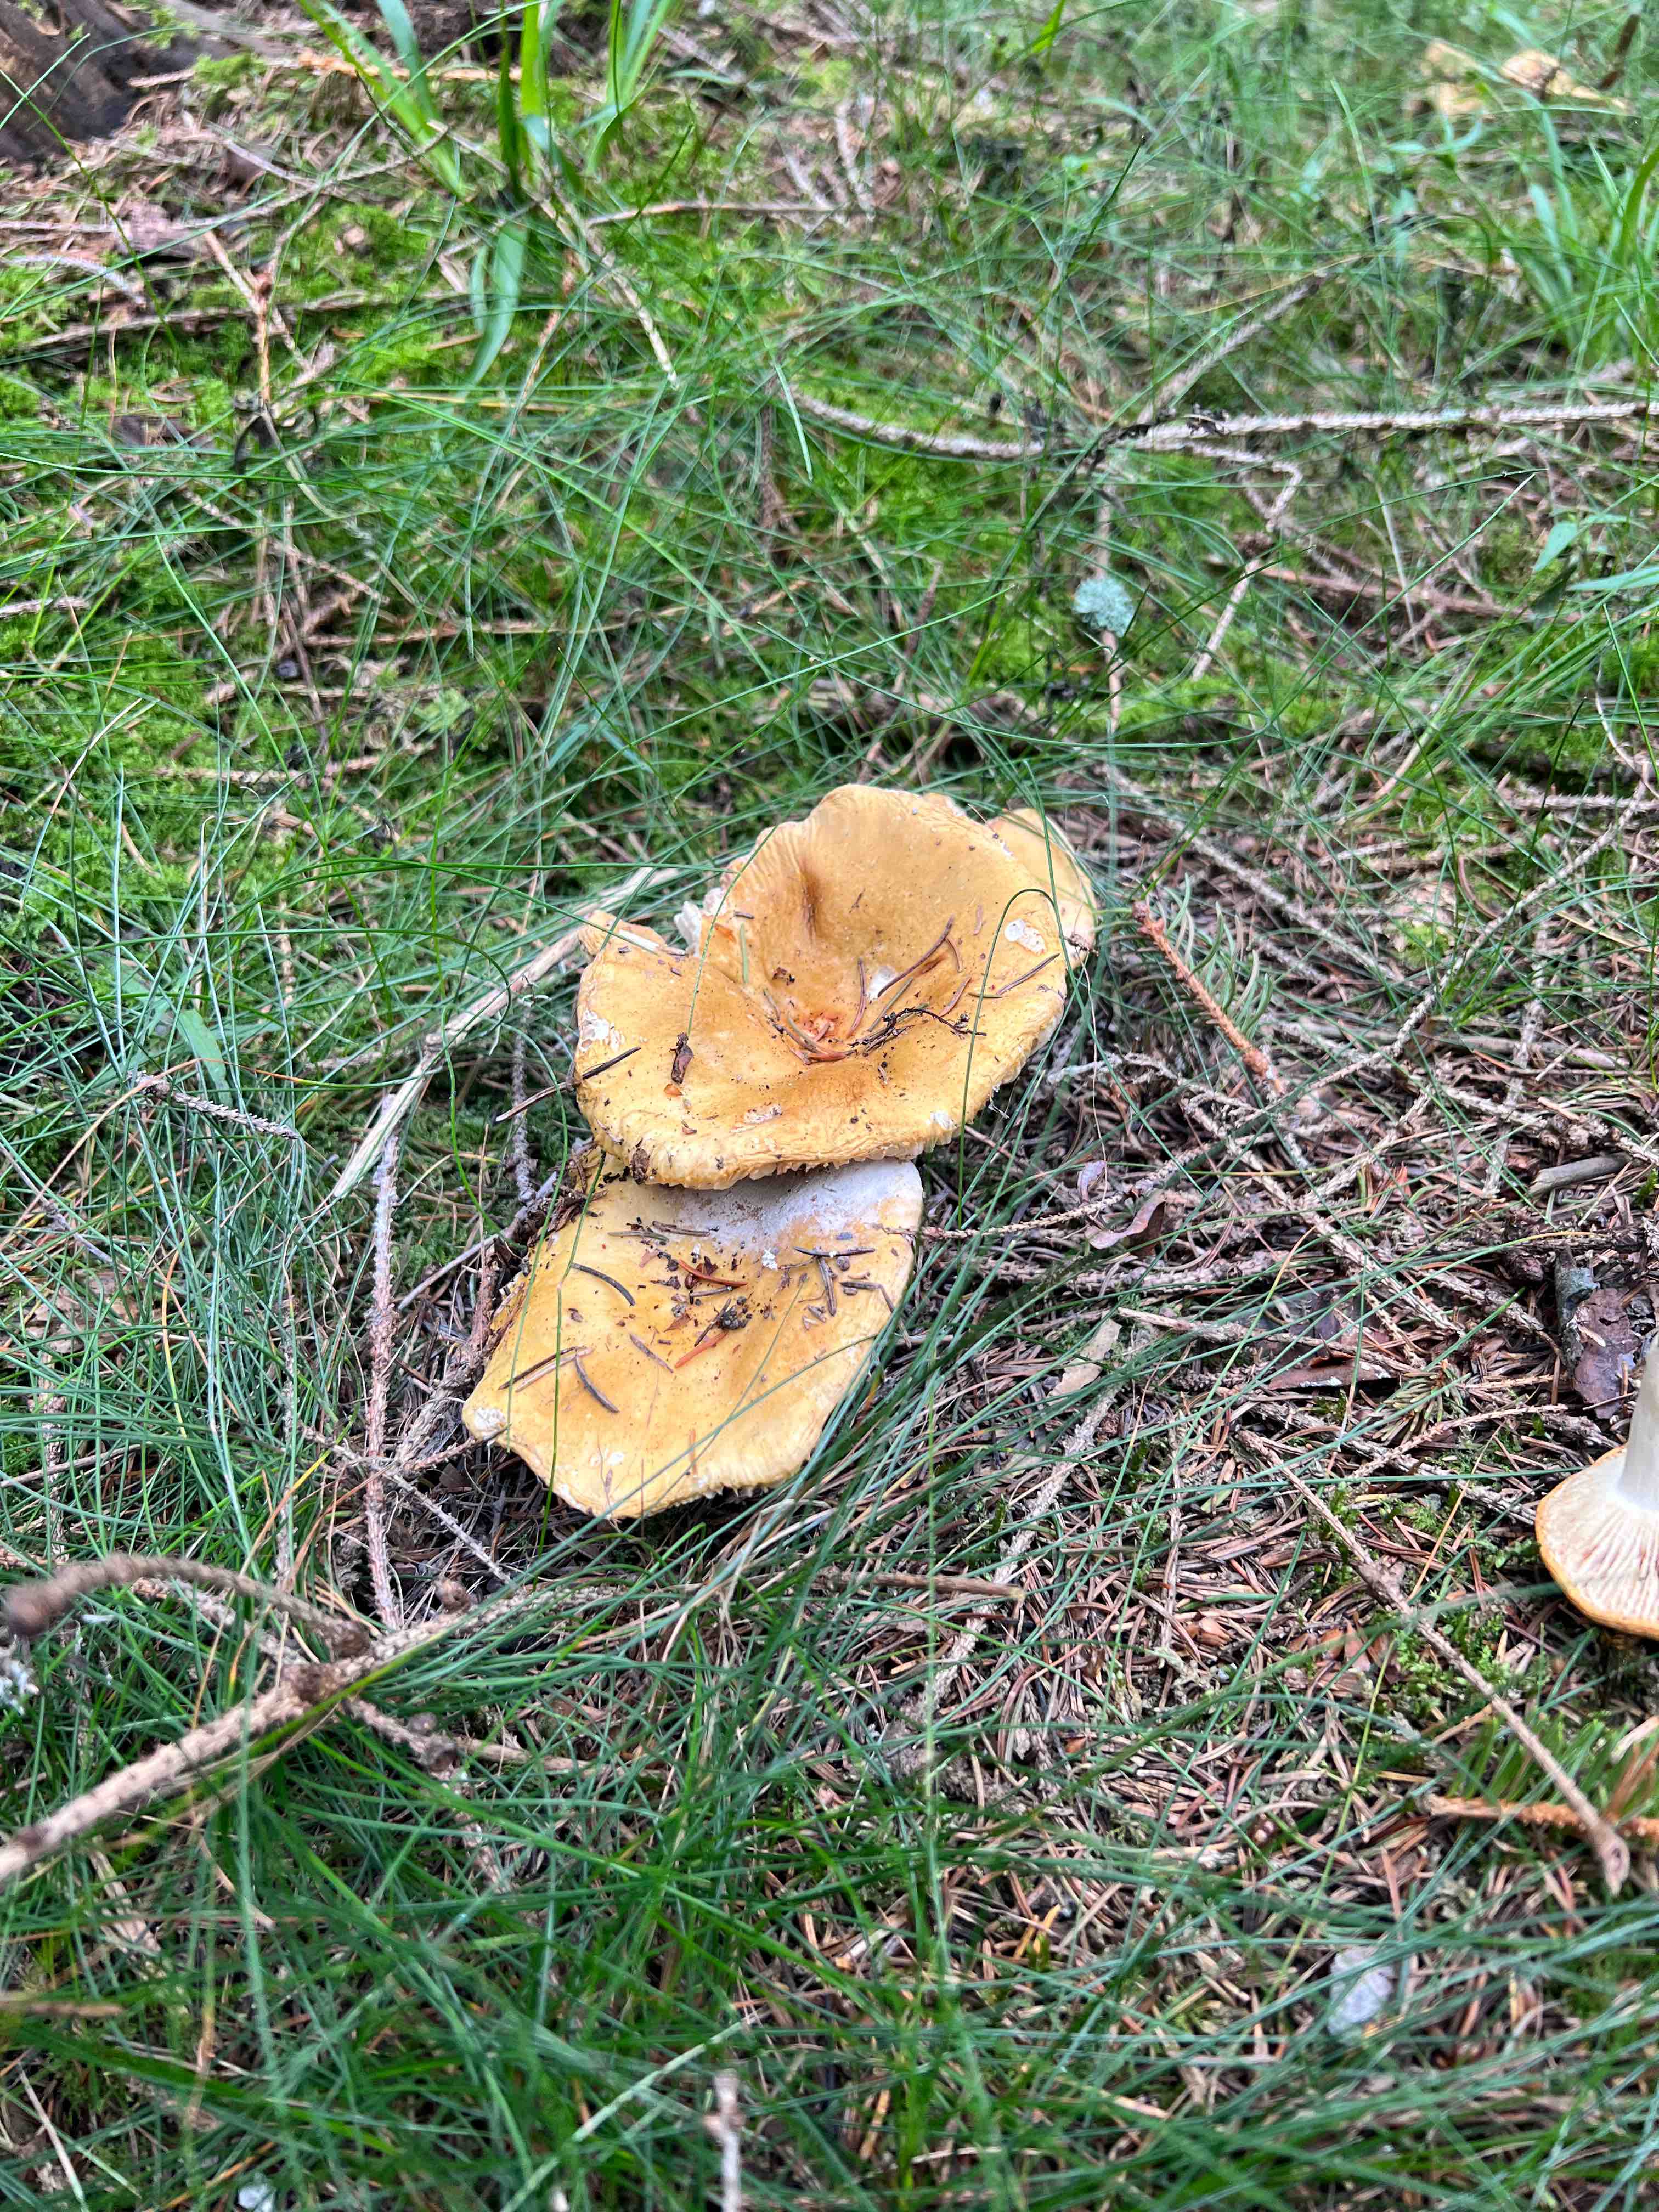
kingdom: Fungi
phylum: Basidiomycota
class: Agaricomycetes
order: Russulales
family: Russulaceae
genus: Russula
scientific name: Russula
